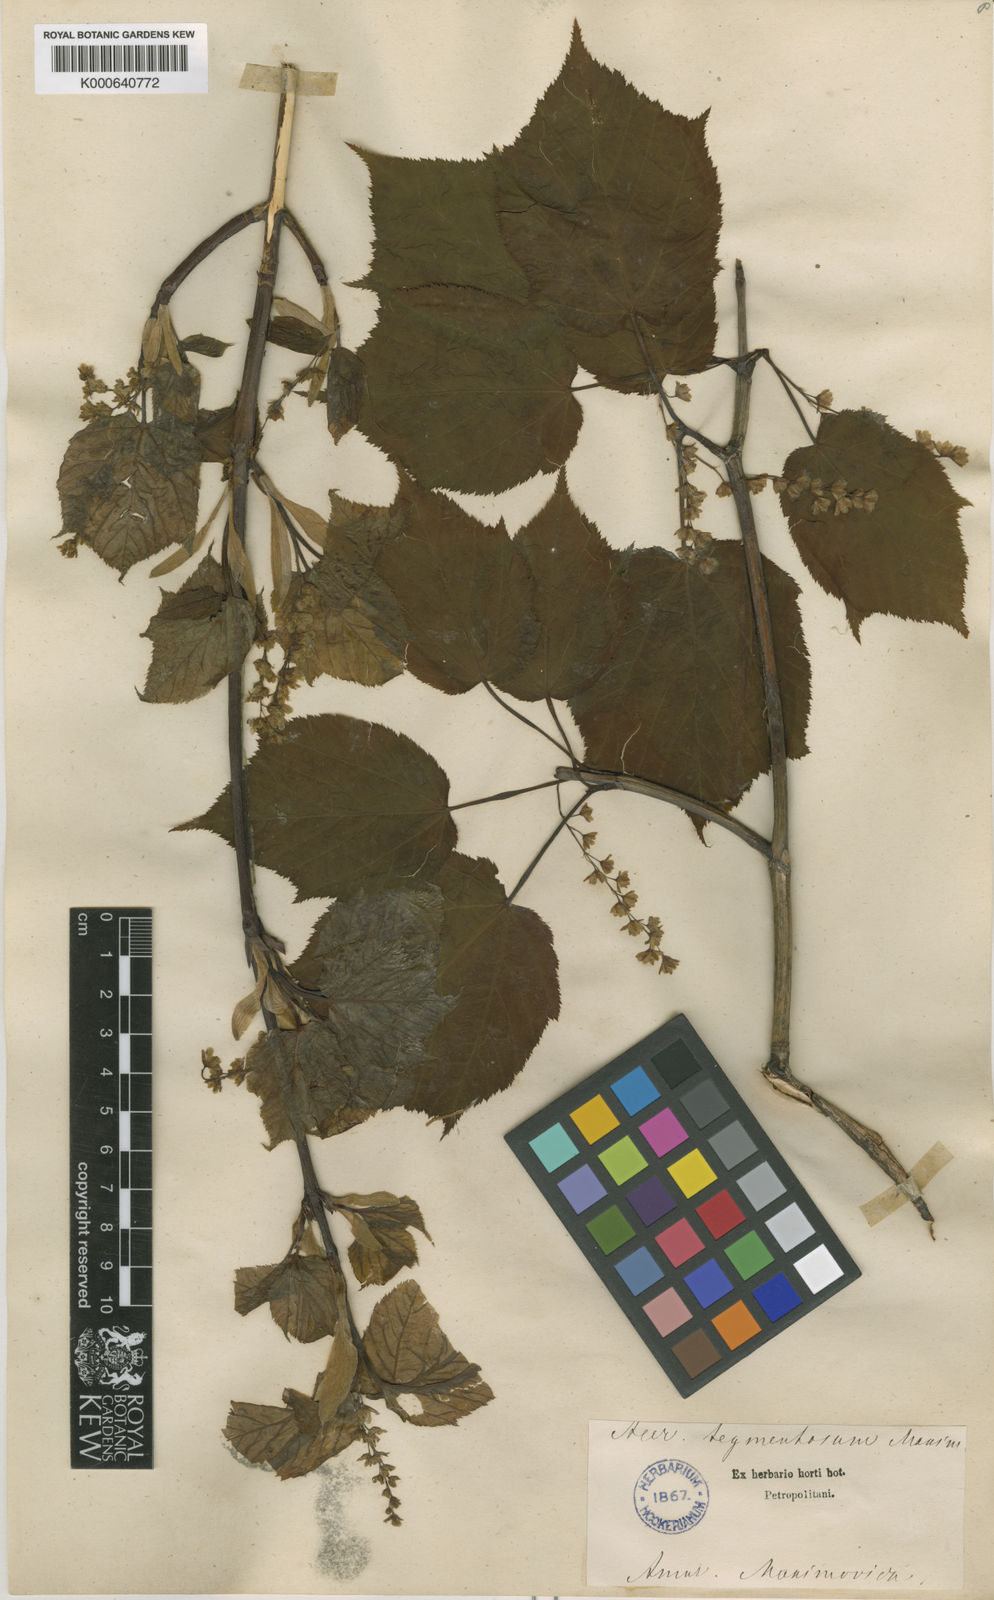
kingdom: Plantae
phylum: Tracheophyta
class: Magnoliopsida
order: Sapindales
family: Sapindaceae
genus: Acer
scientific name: Acer tegmentosum
